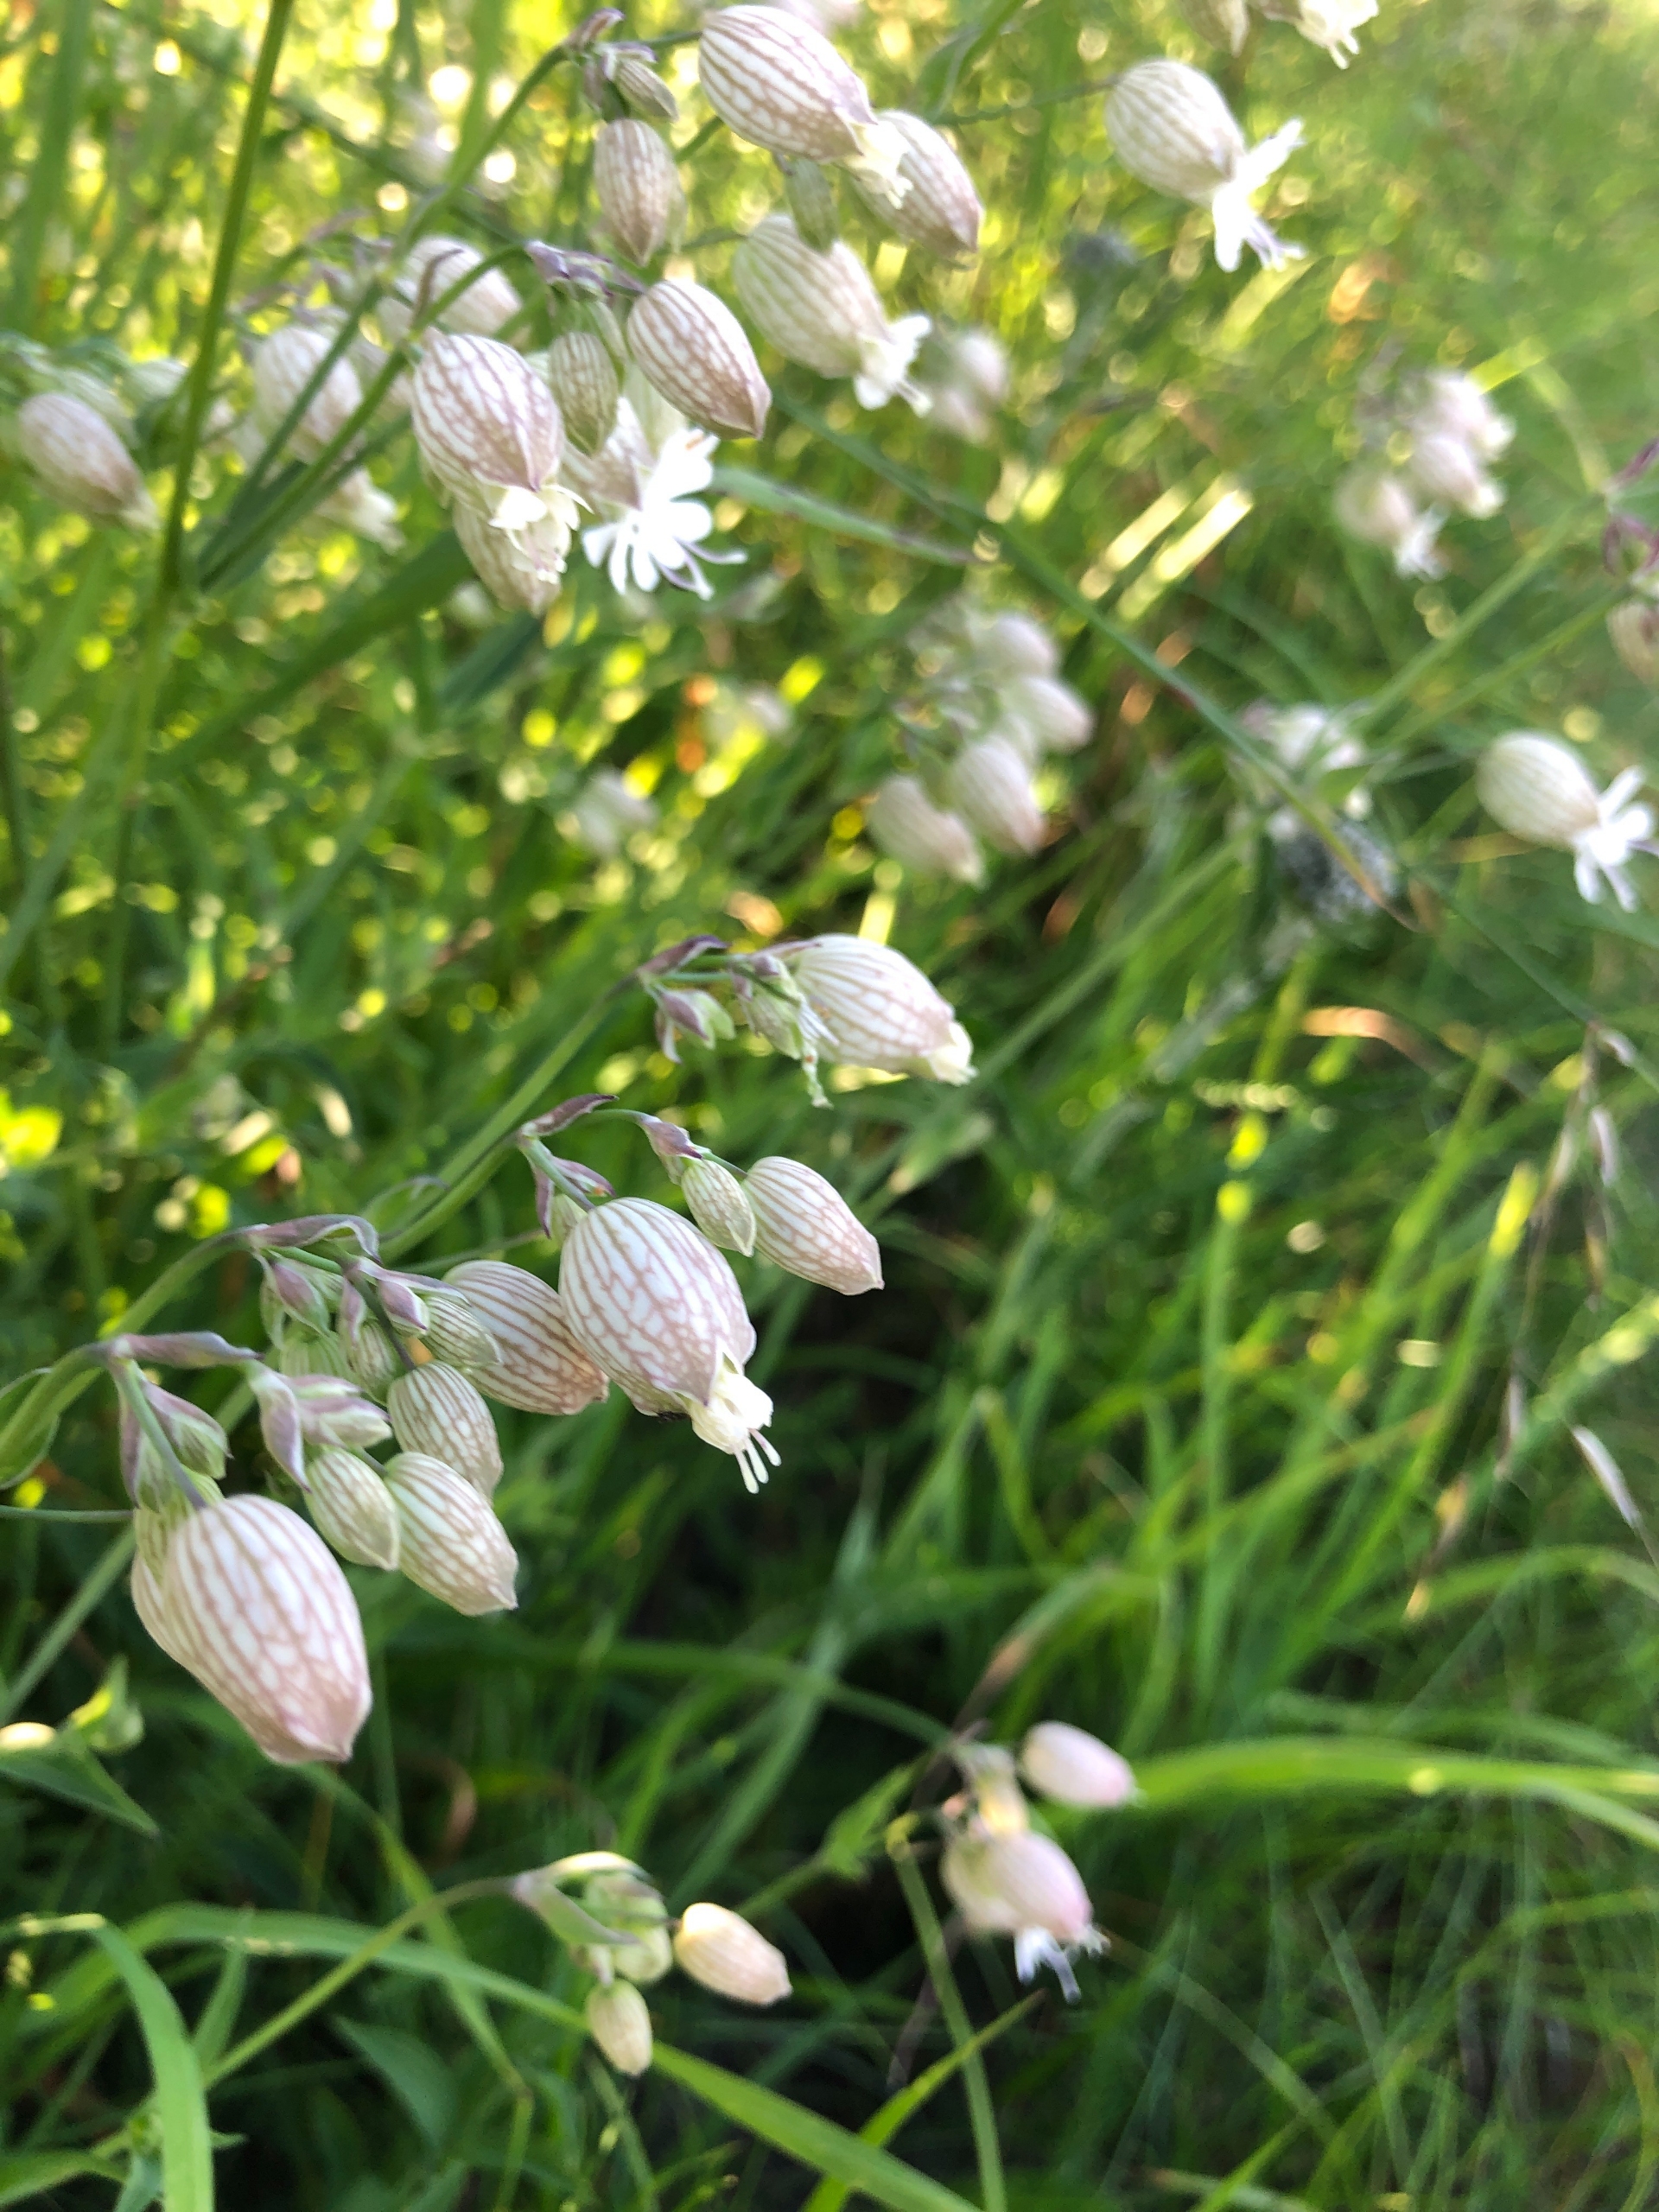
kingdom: Plantae
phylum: Tracheophyta
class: Magnoliopsida
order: Caryophyllales
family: Caryophyllaceae
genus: Silene
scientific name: Silene vulgaris
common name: Blæresmælde
